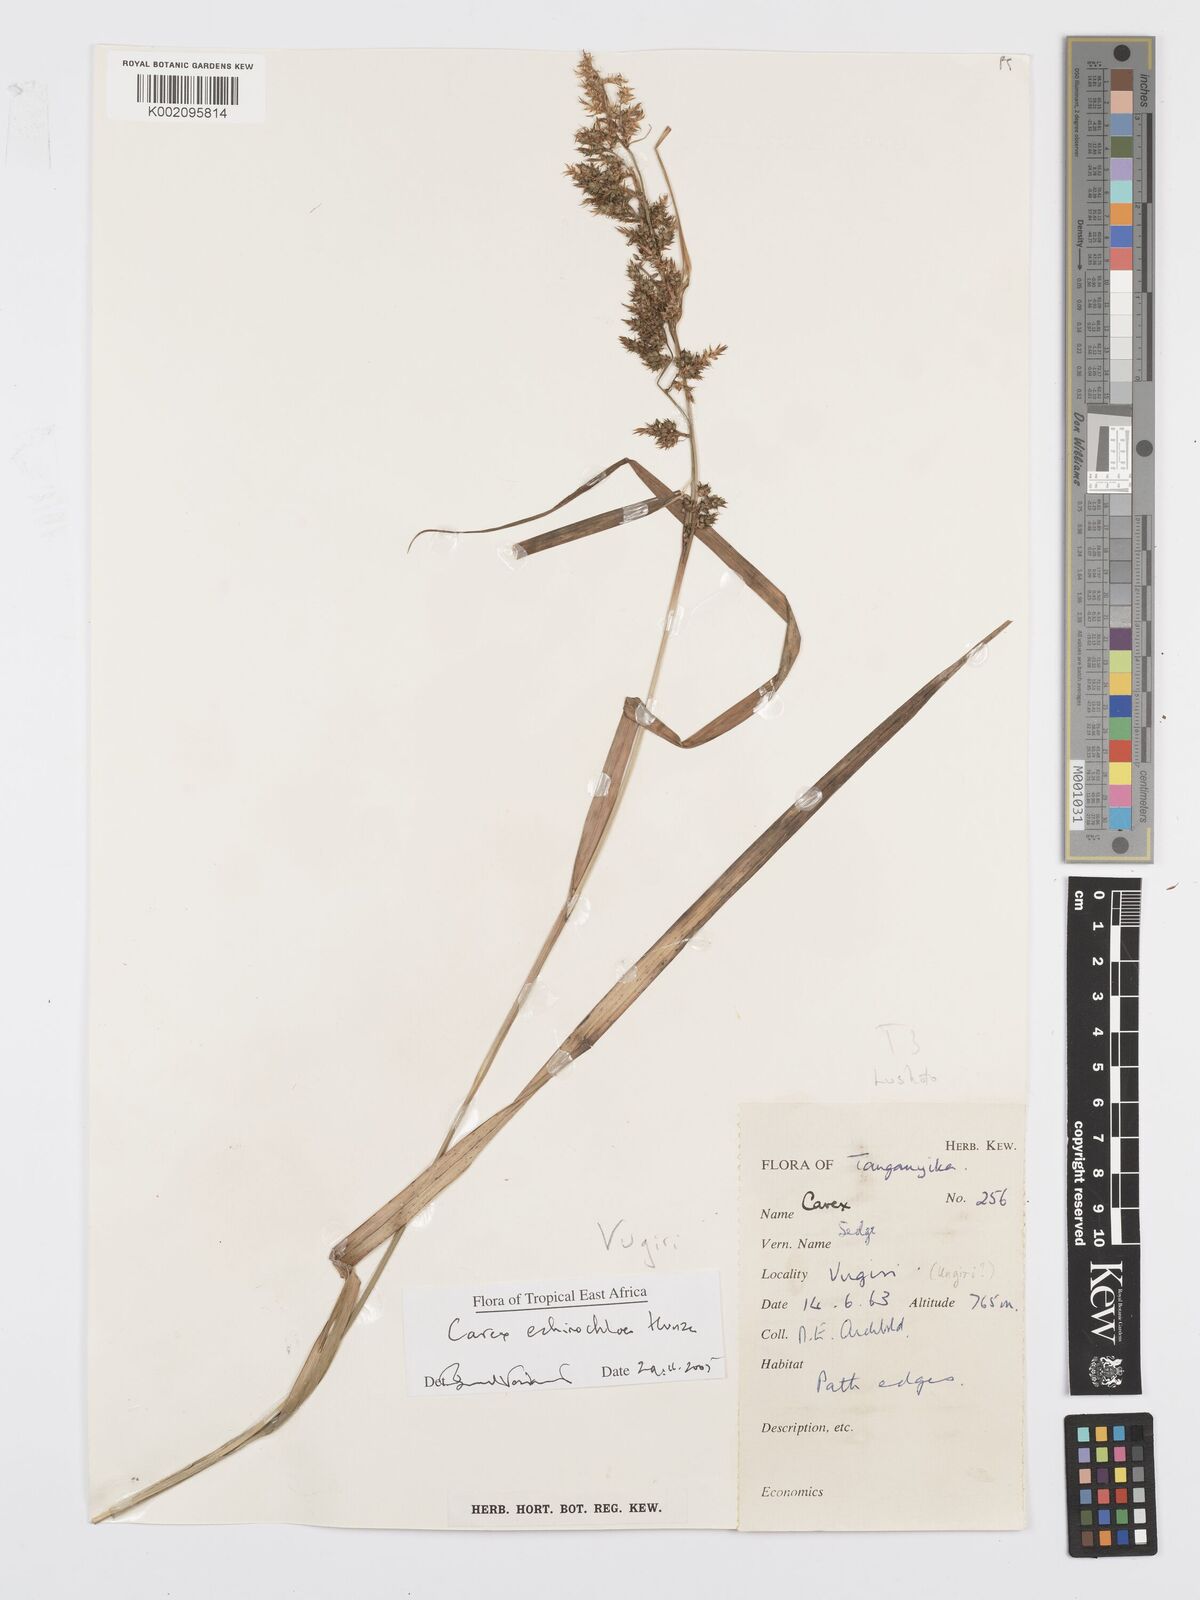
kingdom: Plantae
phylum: Tracheophyta
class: Liliopsida
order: Poales
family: Cyperaceae
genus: Carex
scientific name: Carex echinochloe
